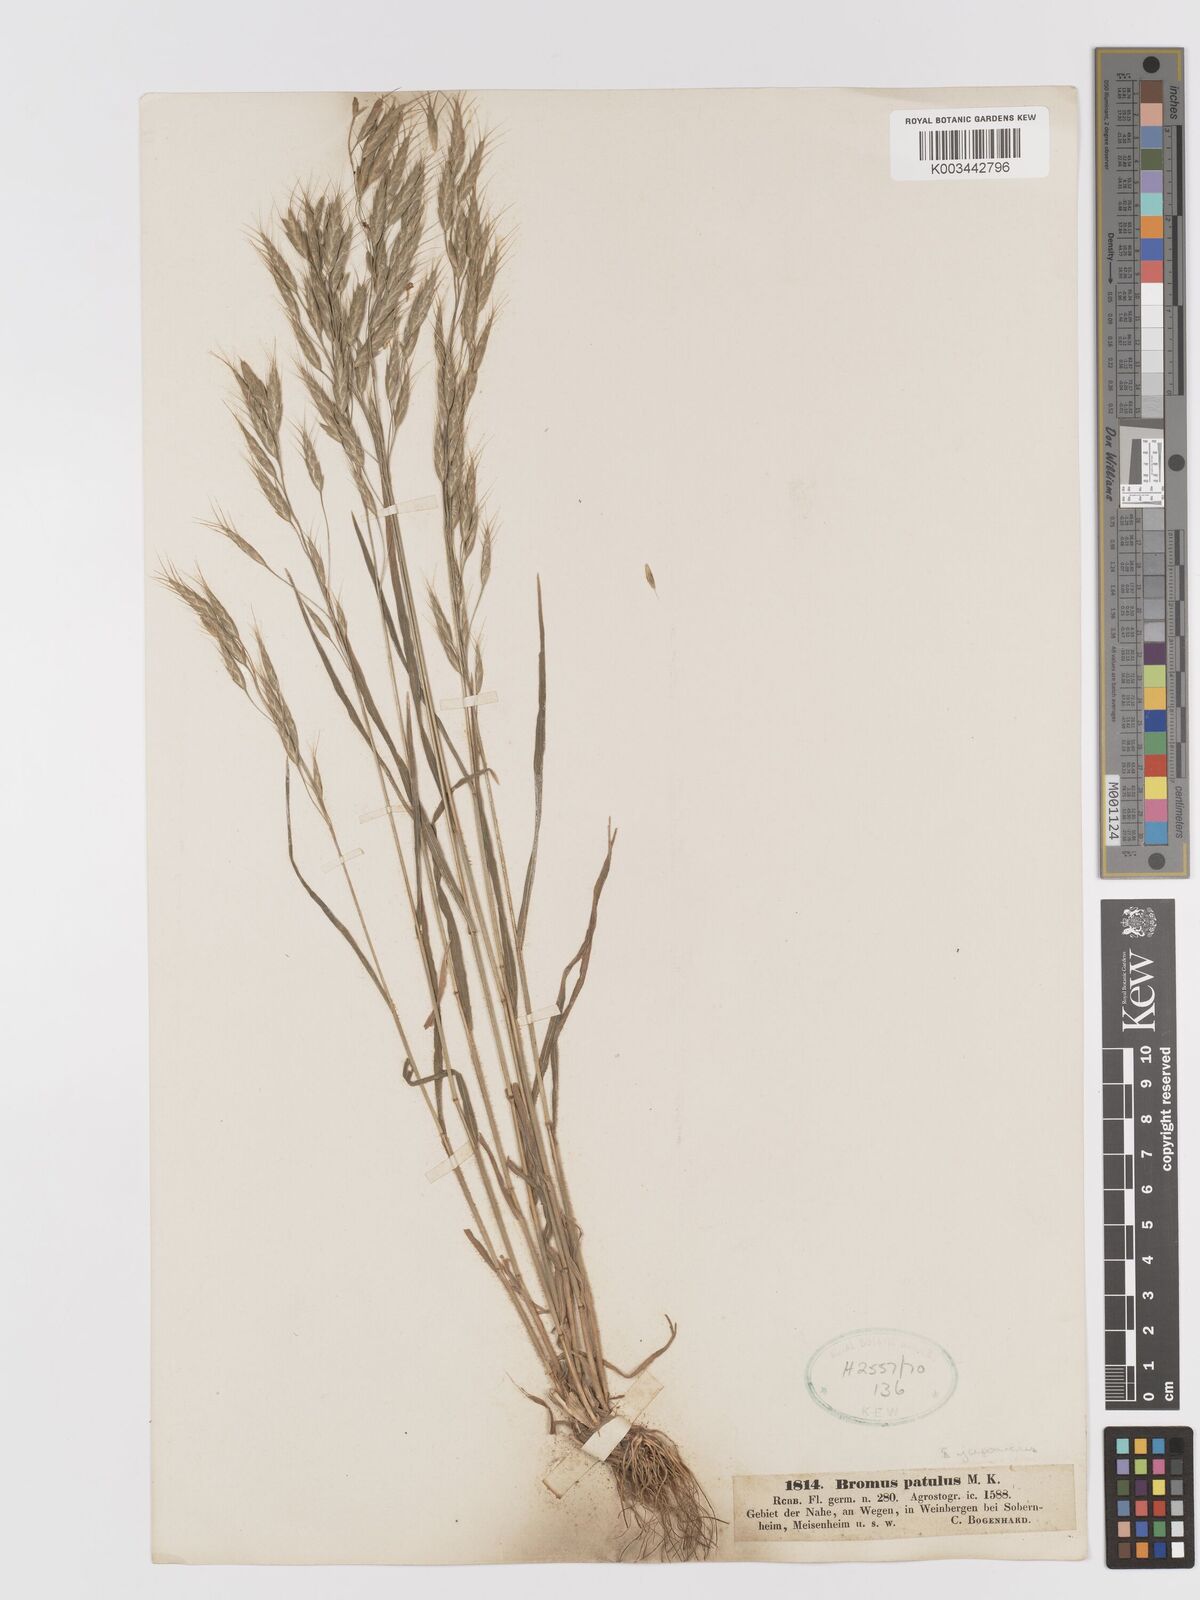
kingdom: Plantae
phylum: Tracheophyta
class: Liliopsida
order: Poales
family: Poaceae
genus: Bromus
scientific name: Bromus japonicus
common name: Japanese brome
